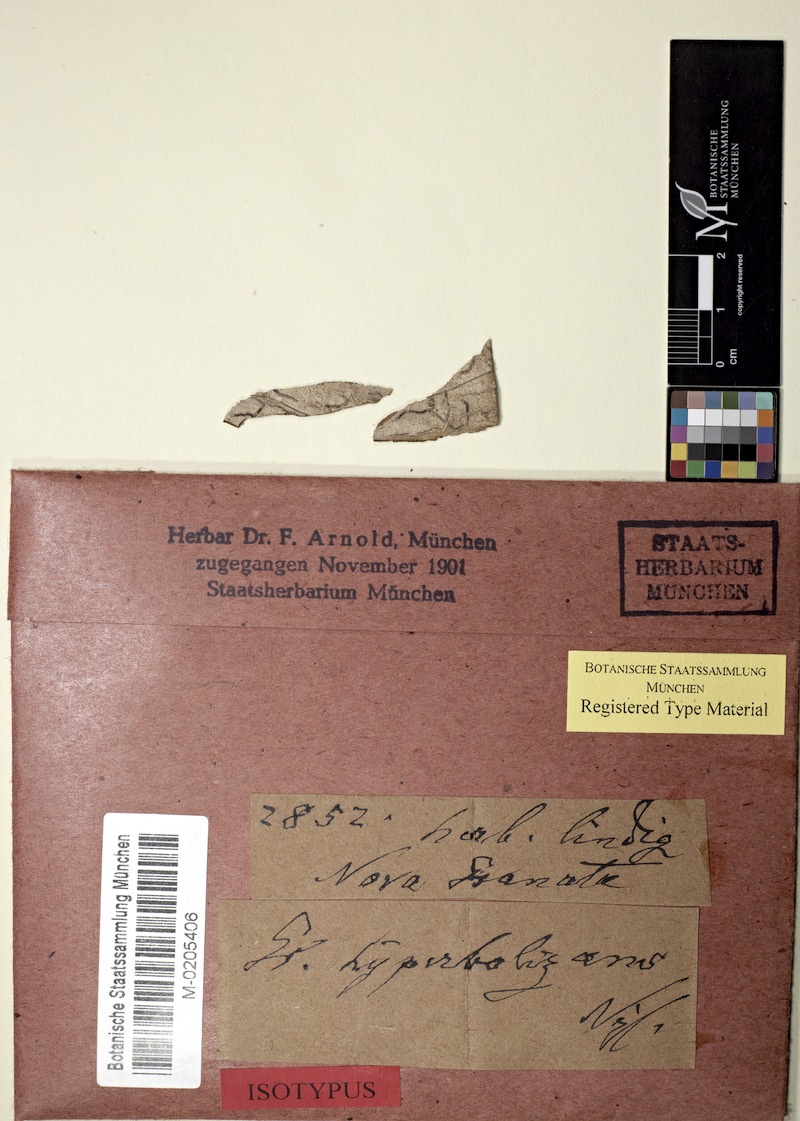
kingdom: Fungi
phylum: Ascomycota
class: Lecanoromycetes
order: Ostropales
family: Graphidaceae
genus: Allographa
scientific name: Allographa acharii
